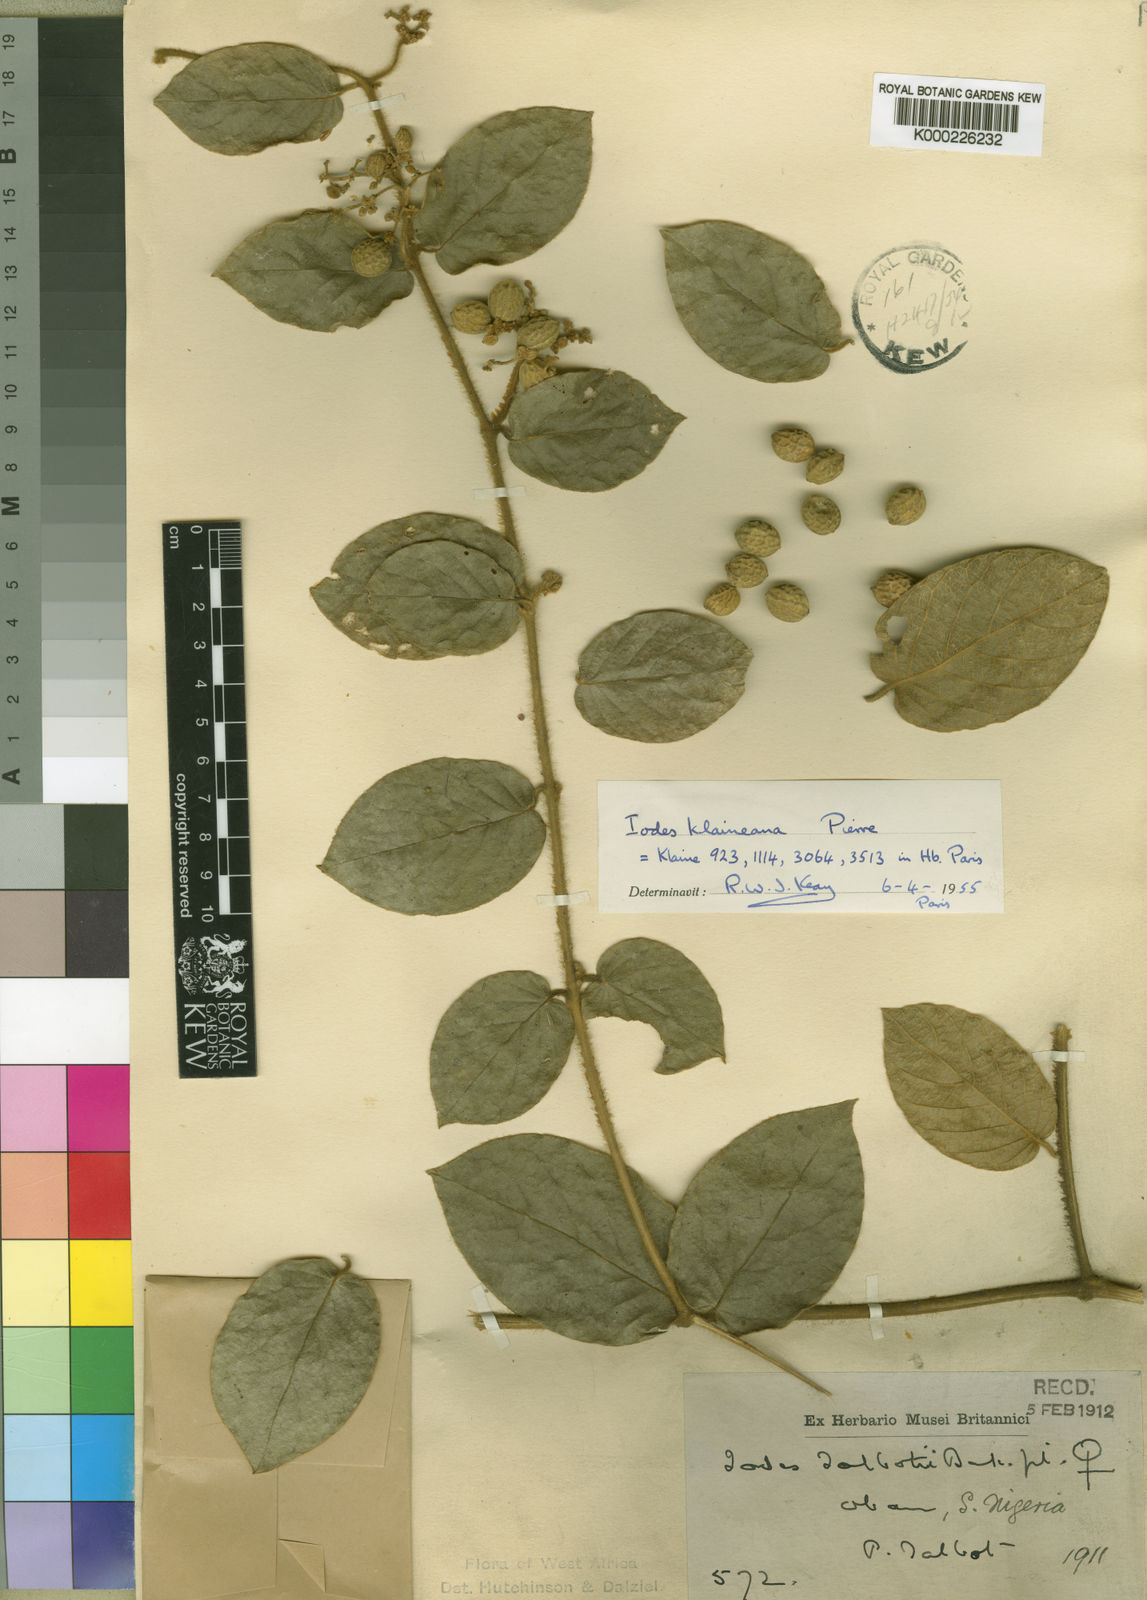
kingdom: Plantae
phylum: Tracheophyta
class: Magnoliopsida
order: Icacinales
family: Icacinaceae
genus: Iodes
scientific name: Iodes klaineana
